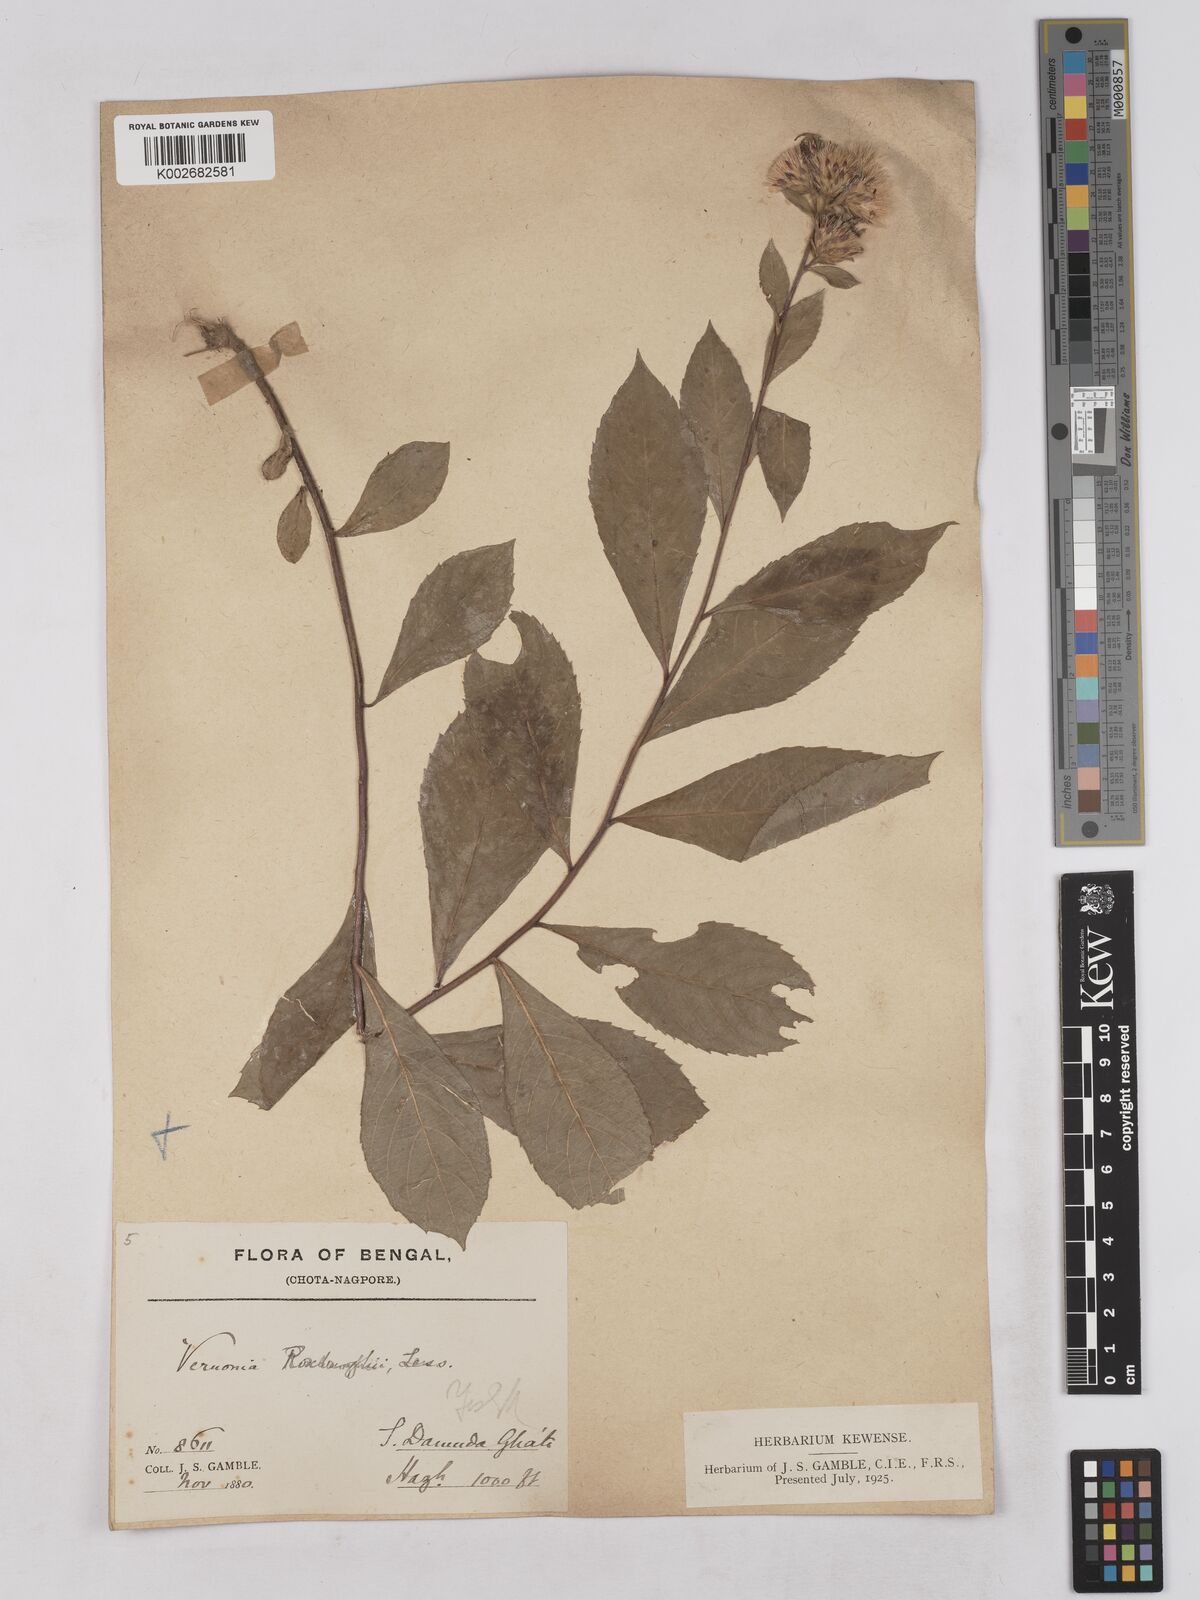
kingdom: Plantae
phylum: Tracheophyta
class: Magnoliopsida
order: Asterales
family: Asteraceae
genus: Acilepis
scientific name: Acilepis aspera
